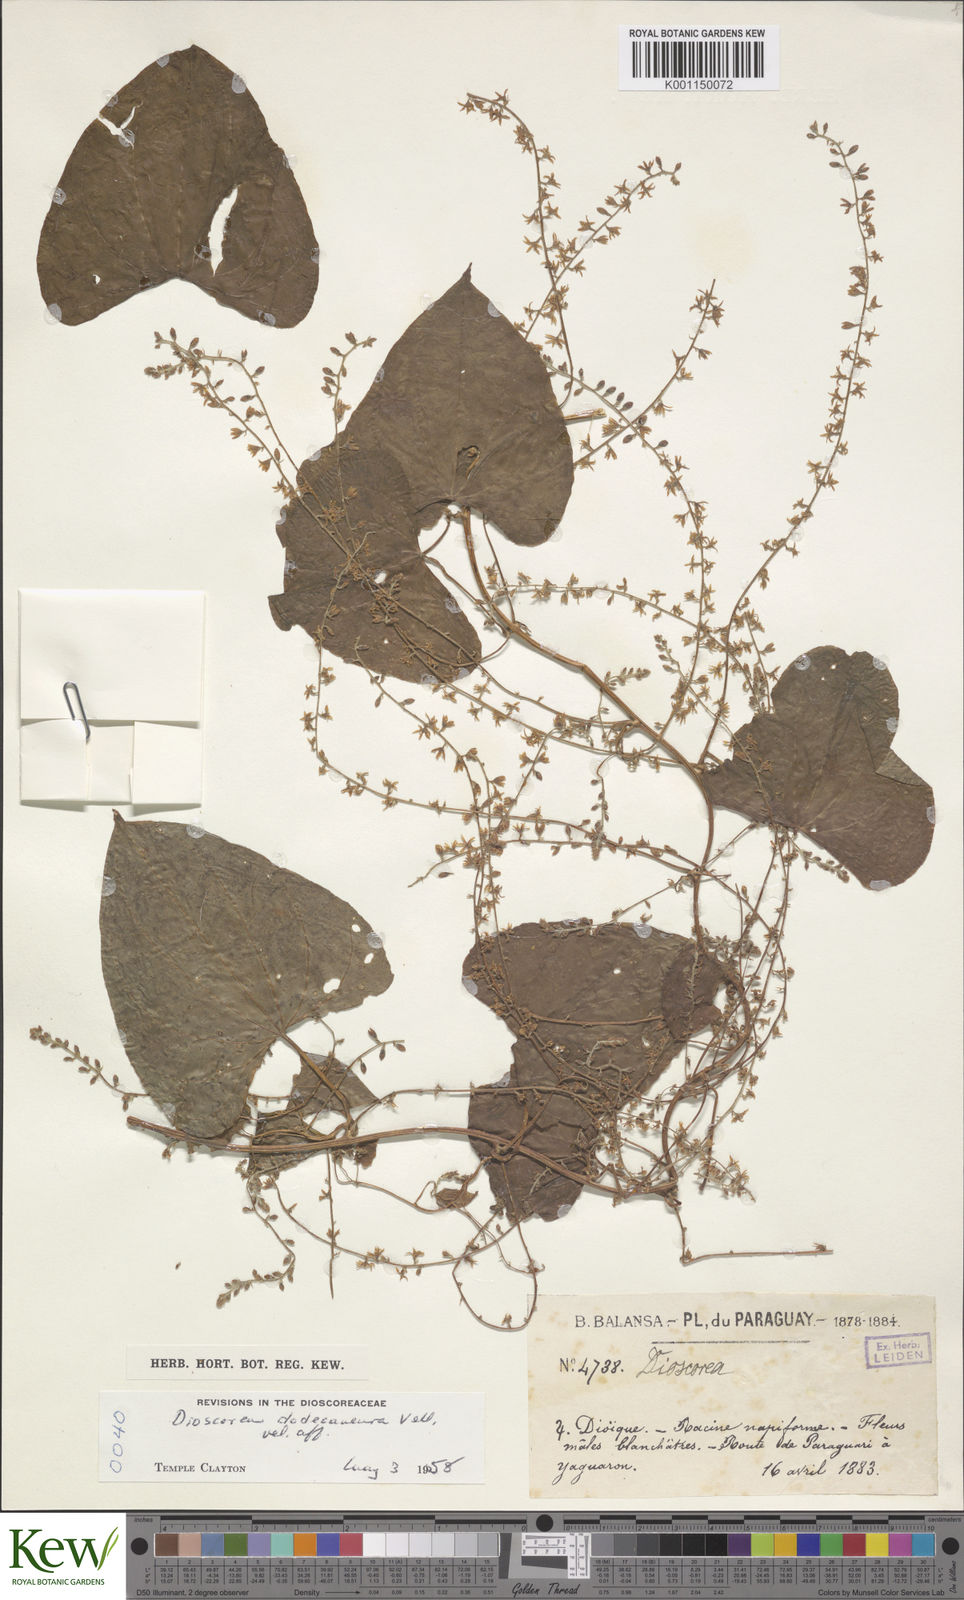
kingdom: Plantae
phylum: Tracheophyta
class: Liliopsida
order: Dioscoreales
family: Dioscoreaceae
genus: Dioscorea
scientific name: Dioscorea dodecaneura
